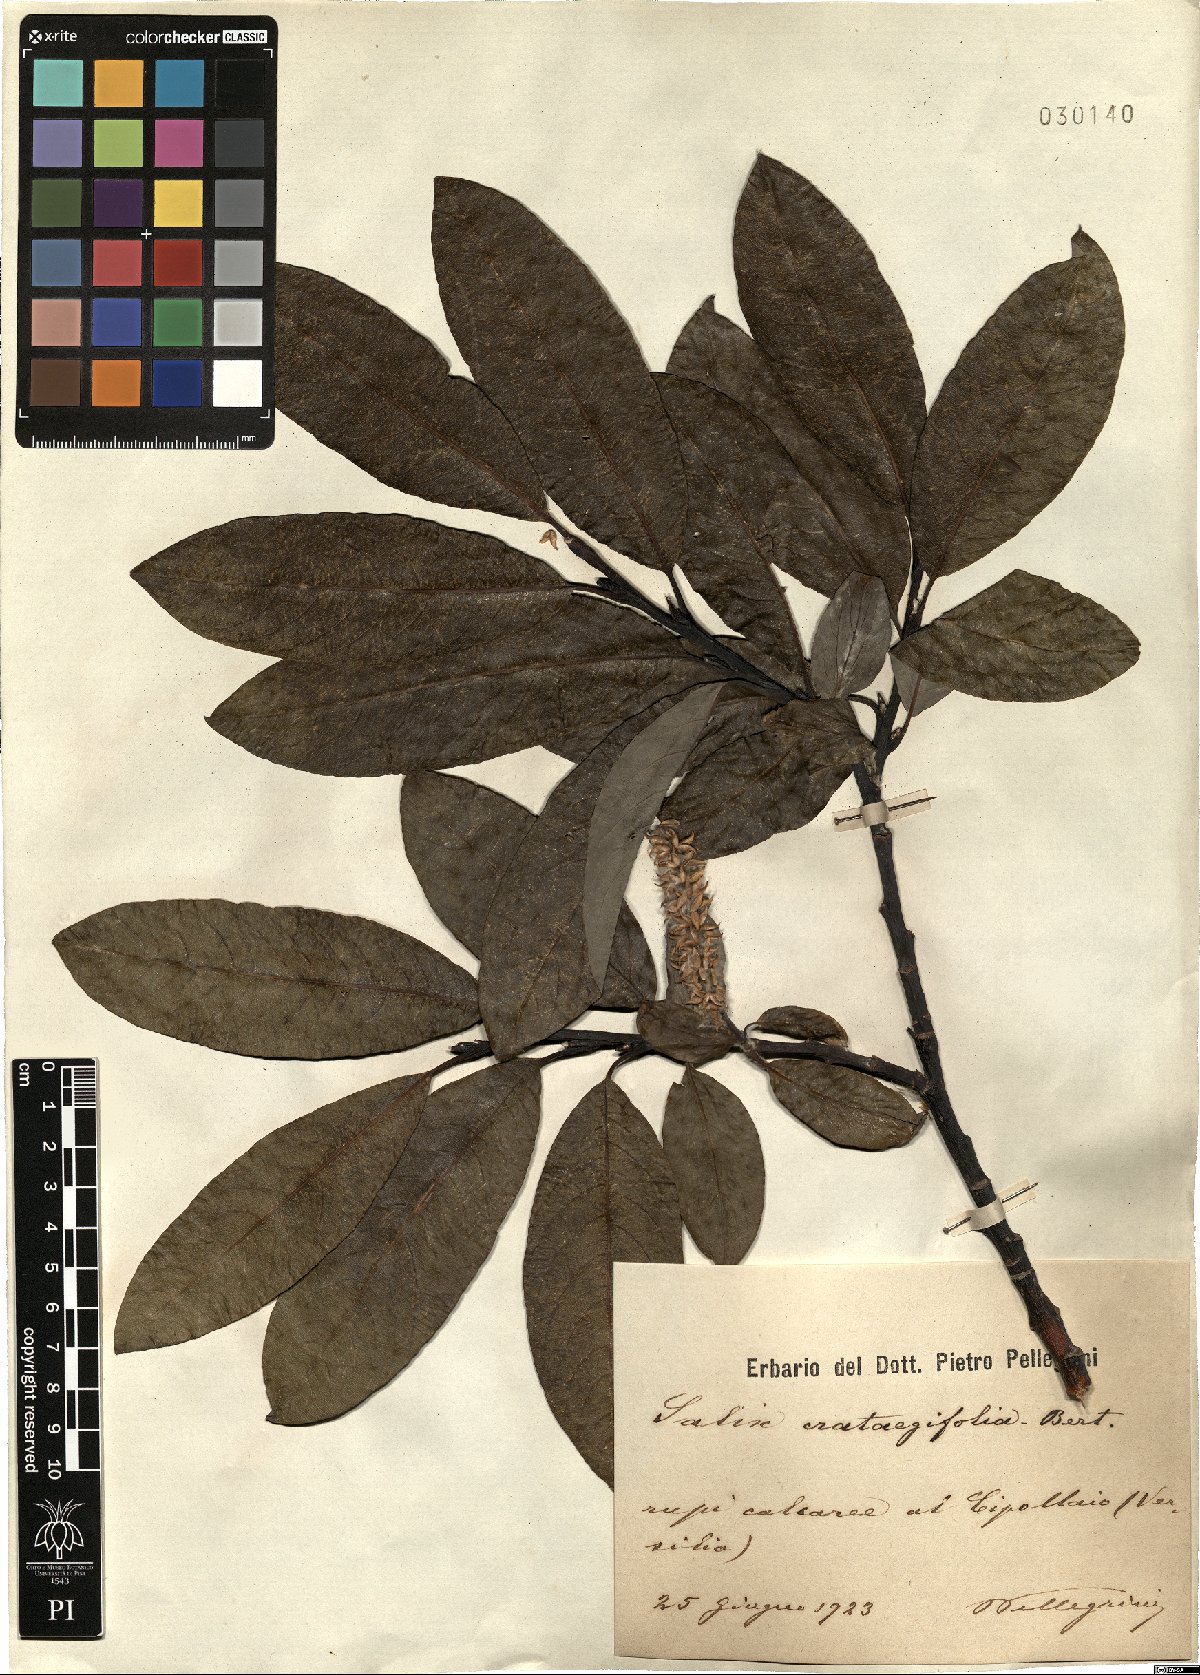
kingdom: Plantae
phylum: Tracheophyta
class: Magnoliopsida
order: Malpighiales
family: Salicaceae
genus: Salix
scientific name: Salix crataegifolia
